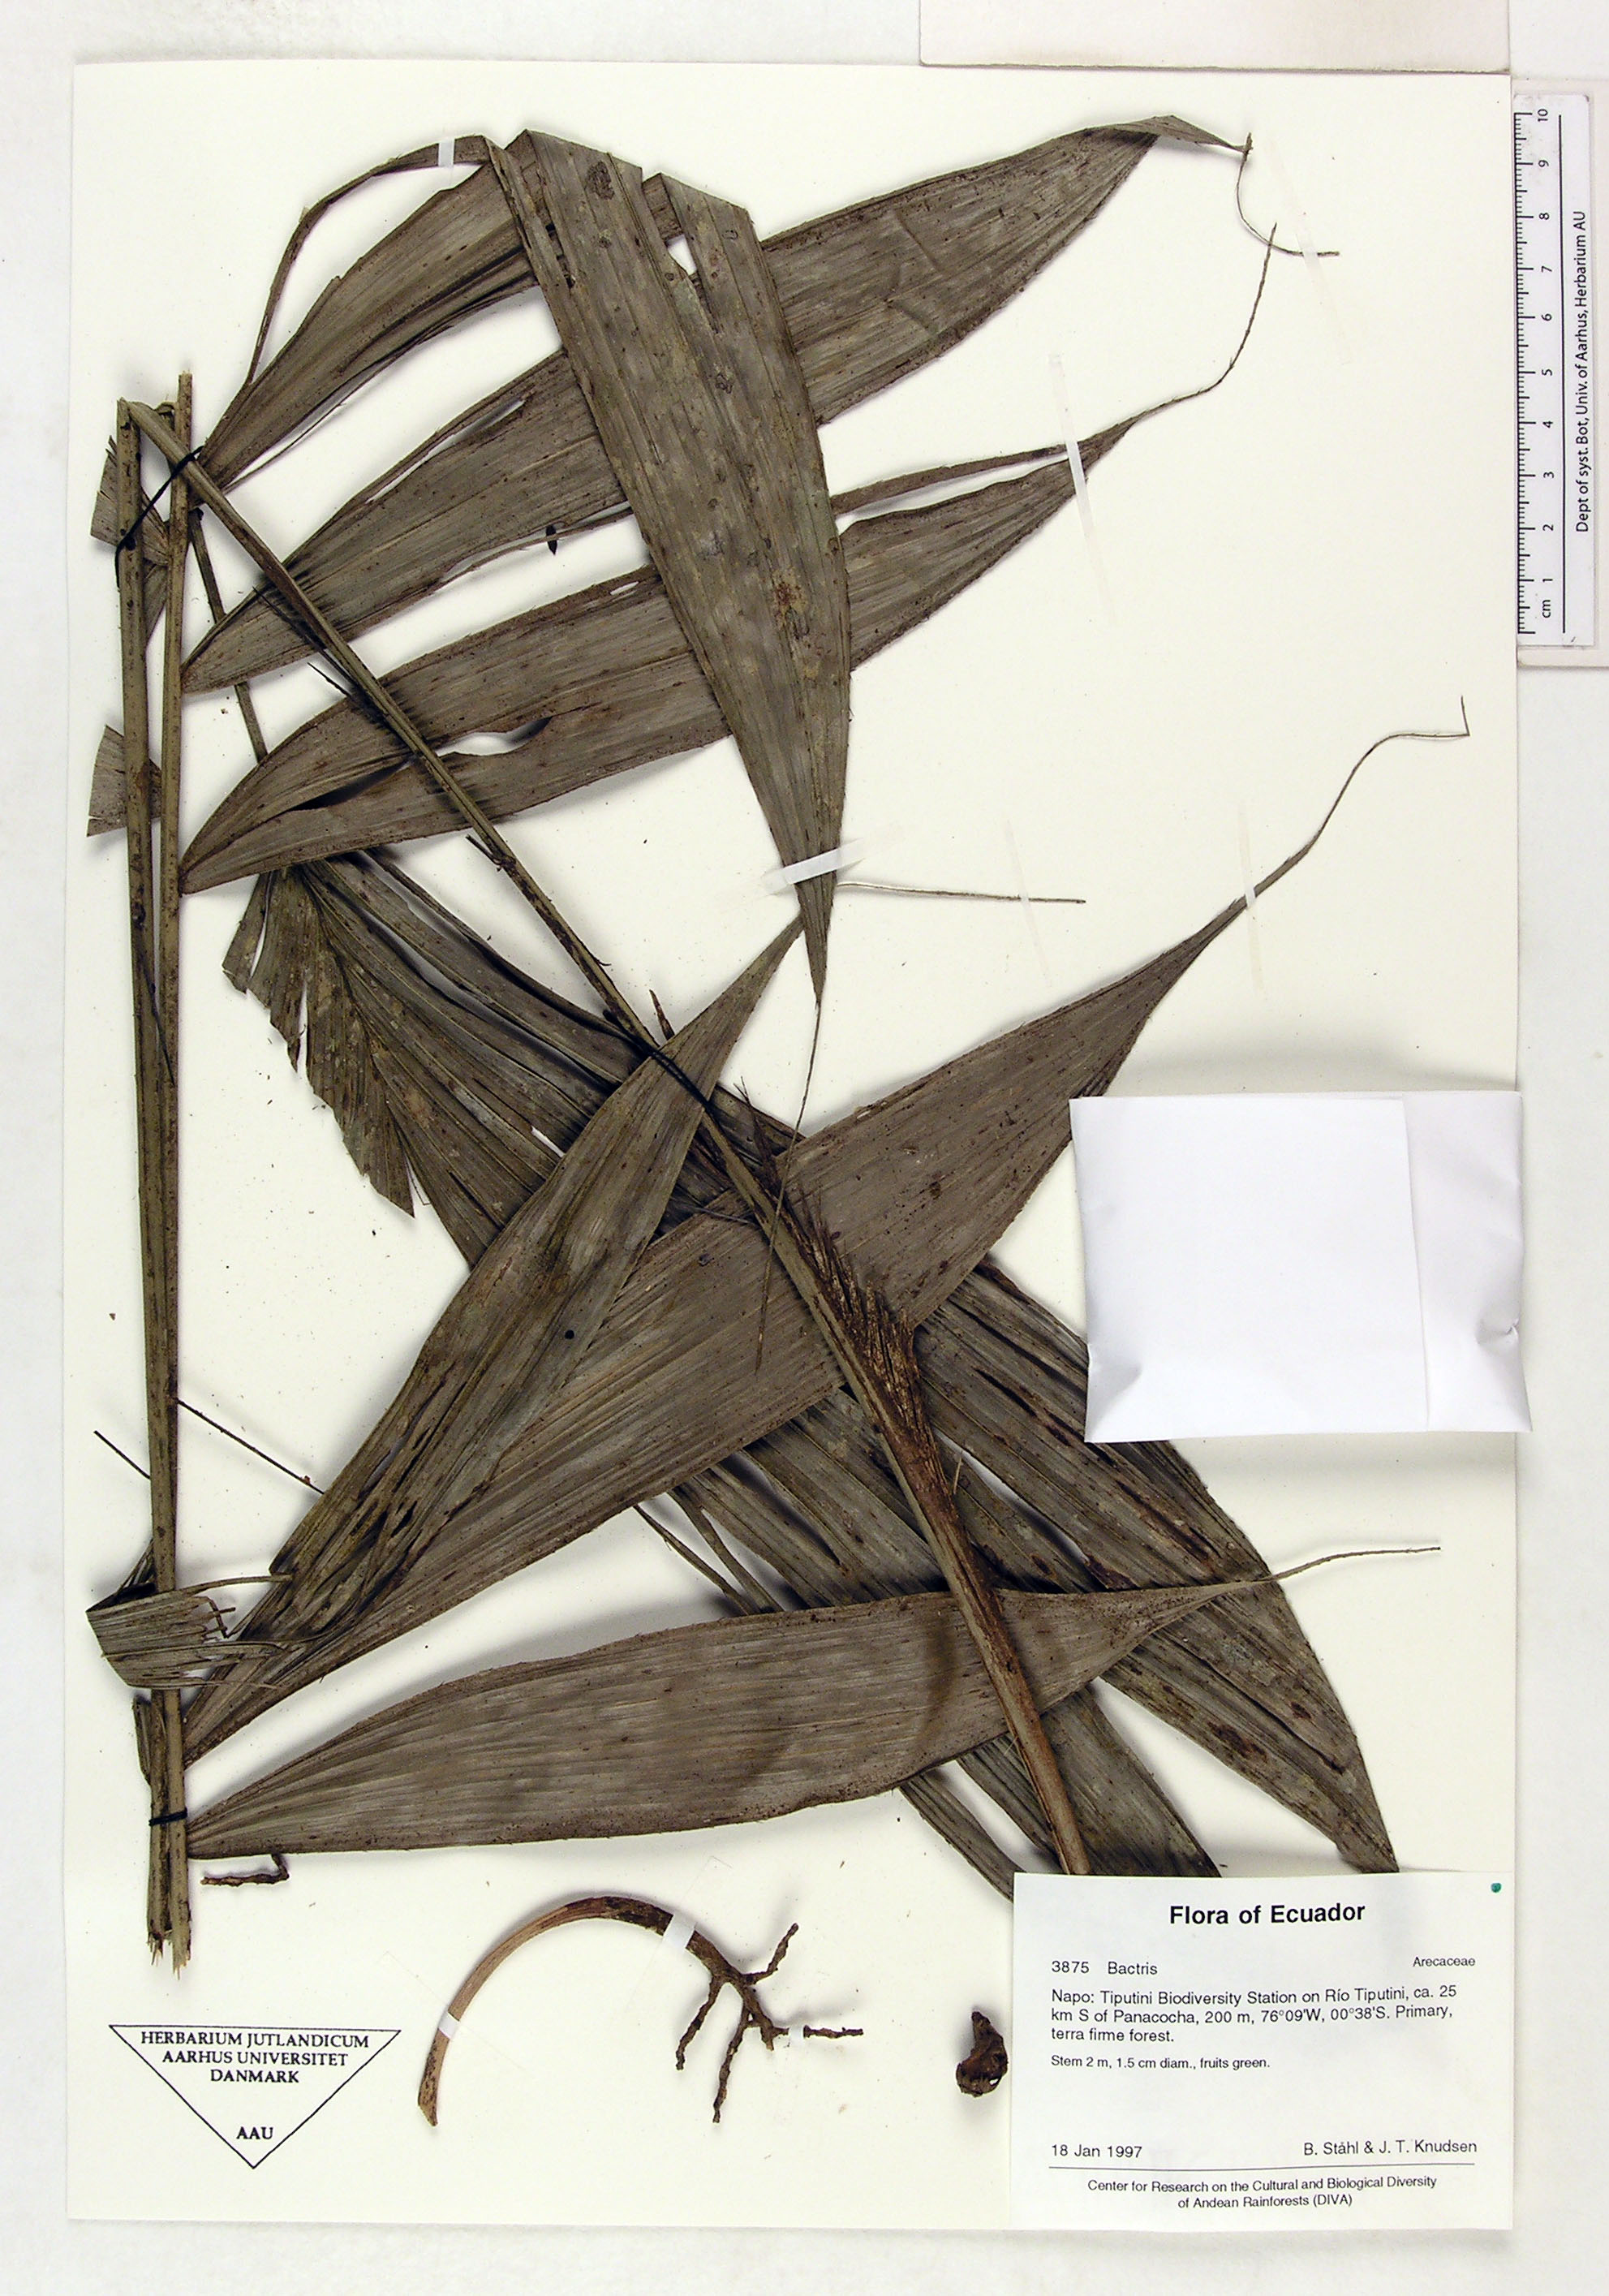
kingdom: Plantae
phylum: Tracheophyta
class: Liliopsida
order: Arecales
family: Arecaceae
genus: Bactris
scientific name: Bactris
